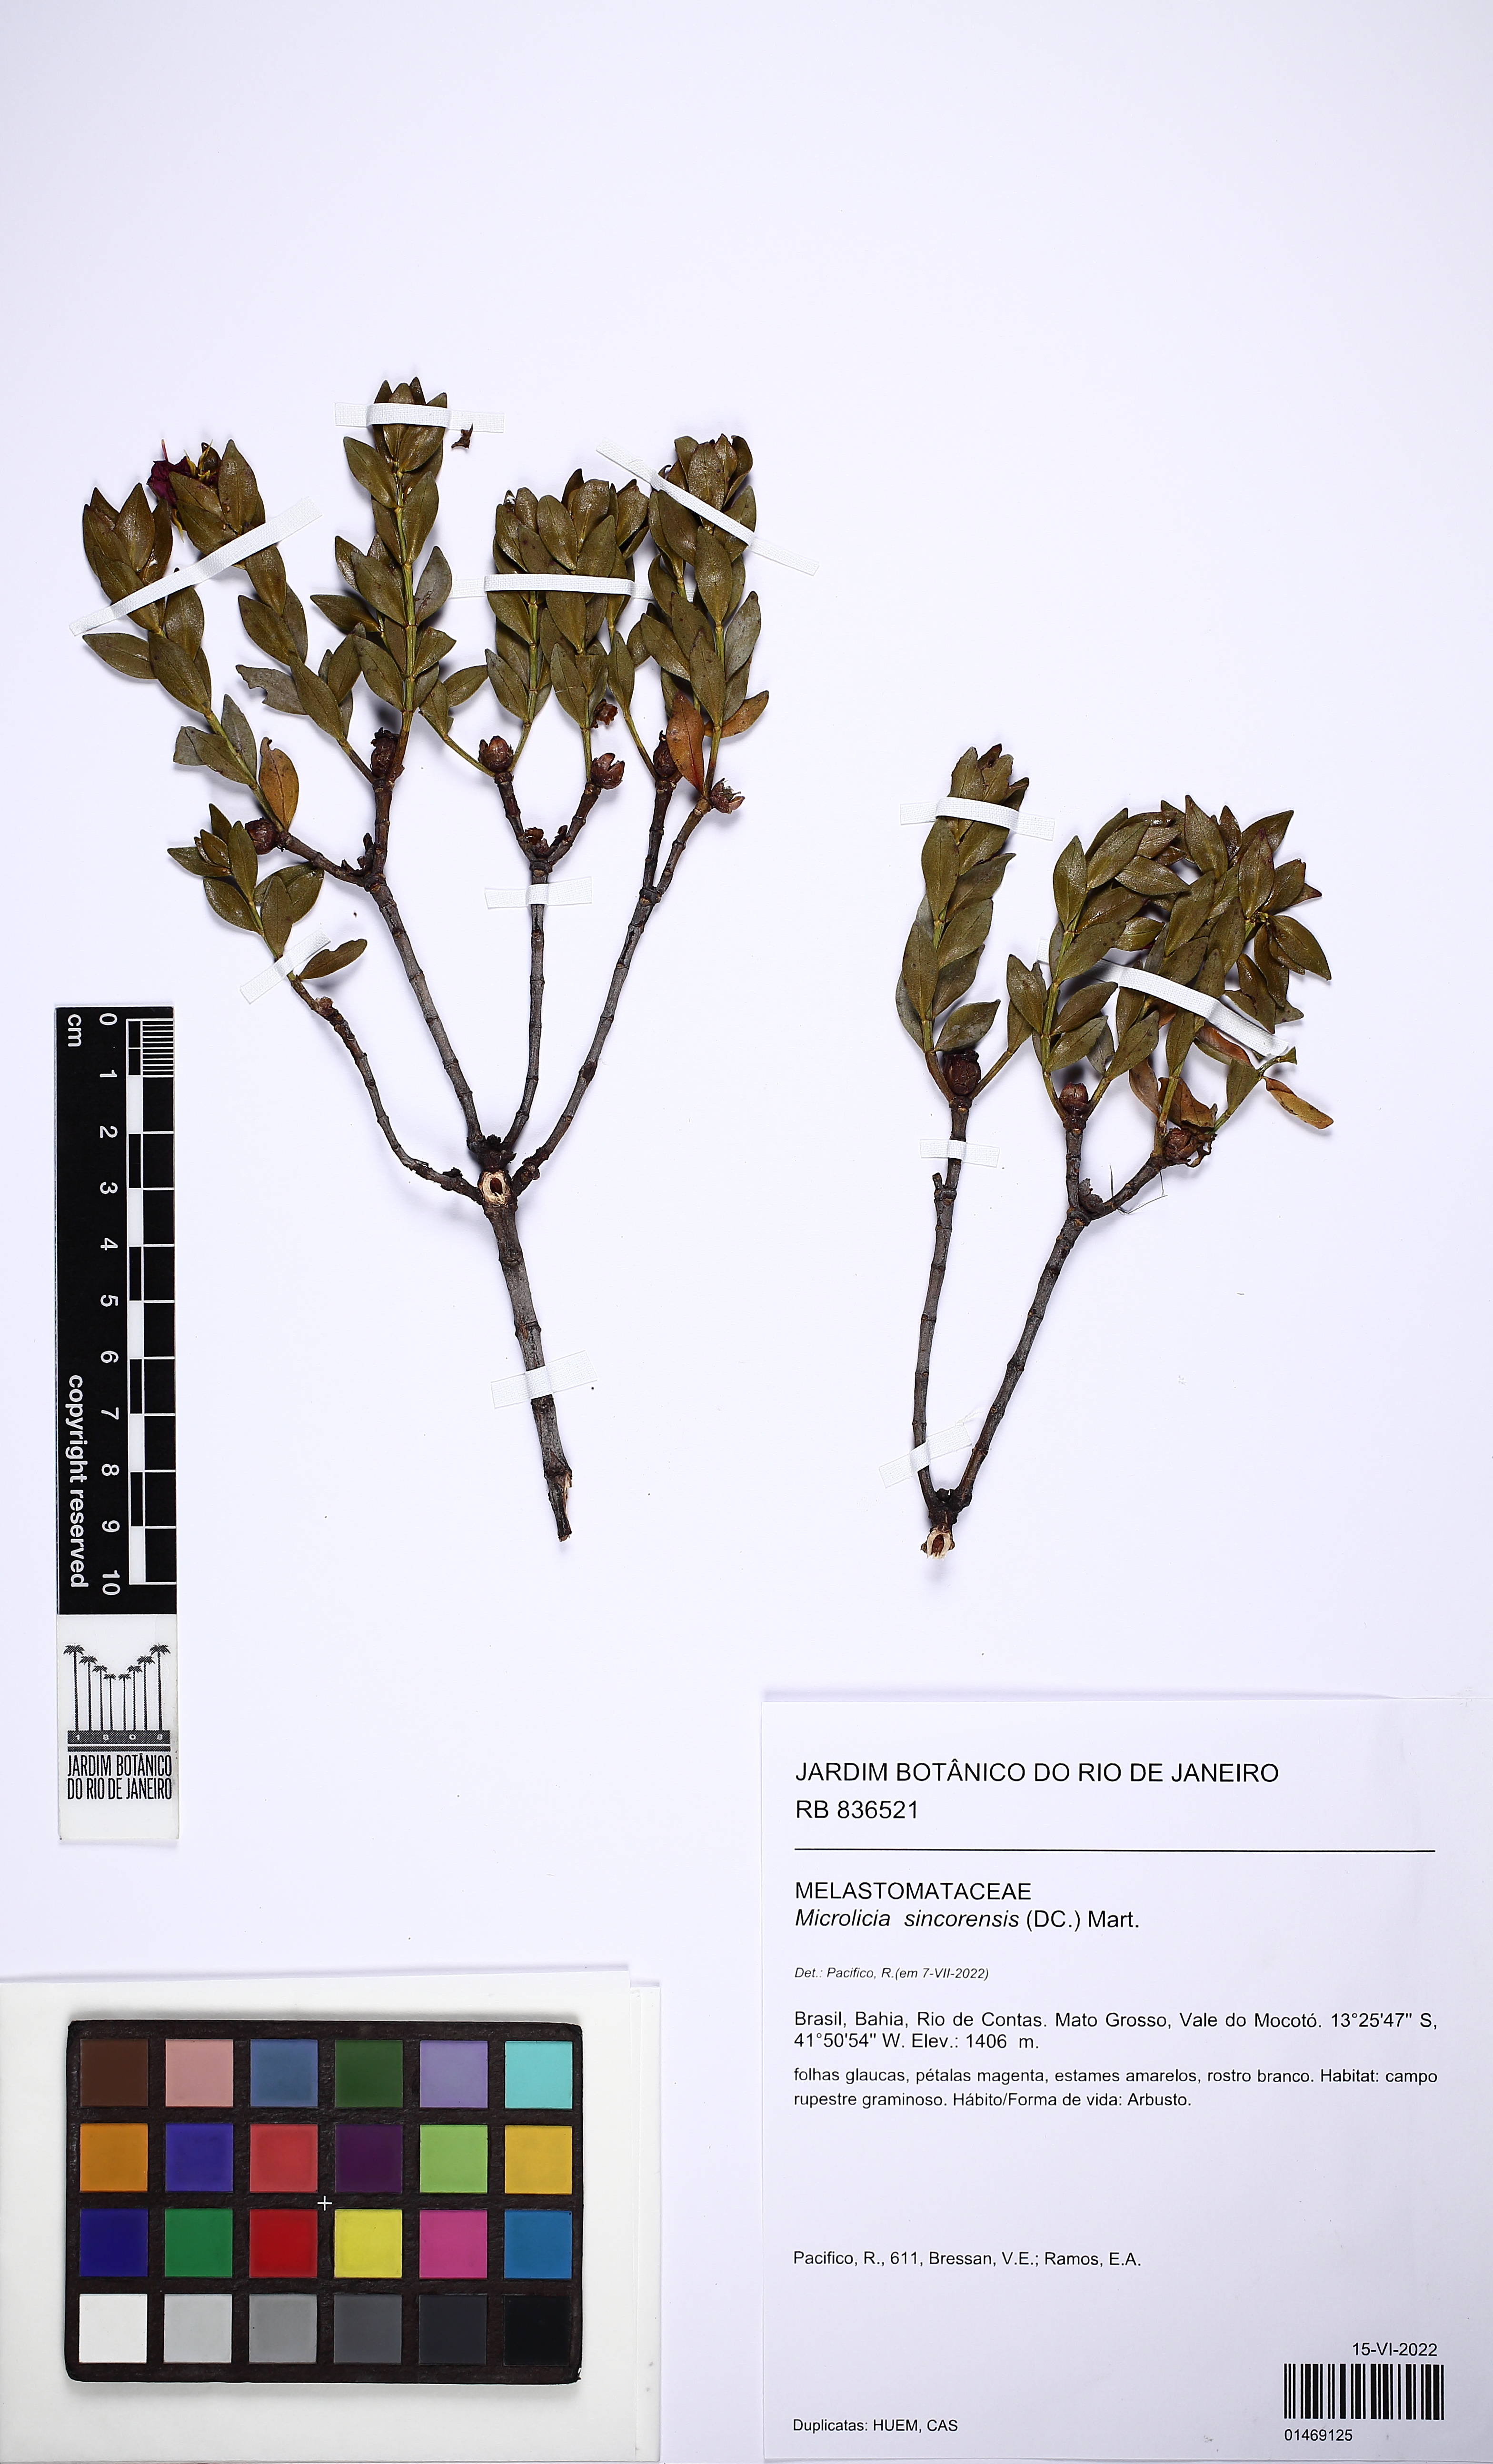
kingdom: Plantae
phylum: Tracheophyta
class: Magnoliopsida
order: Myrtales
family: Melastomataceae
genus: Microlicia
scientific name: Microlicia sincorensis
